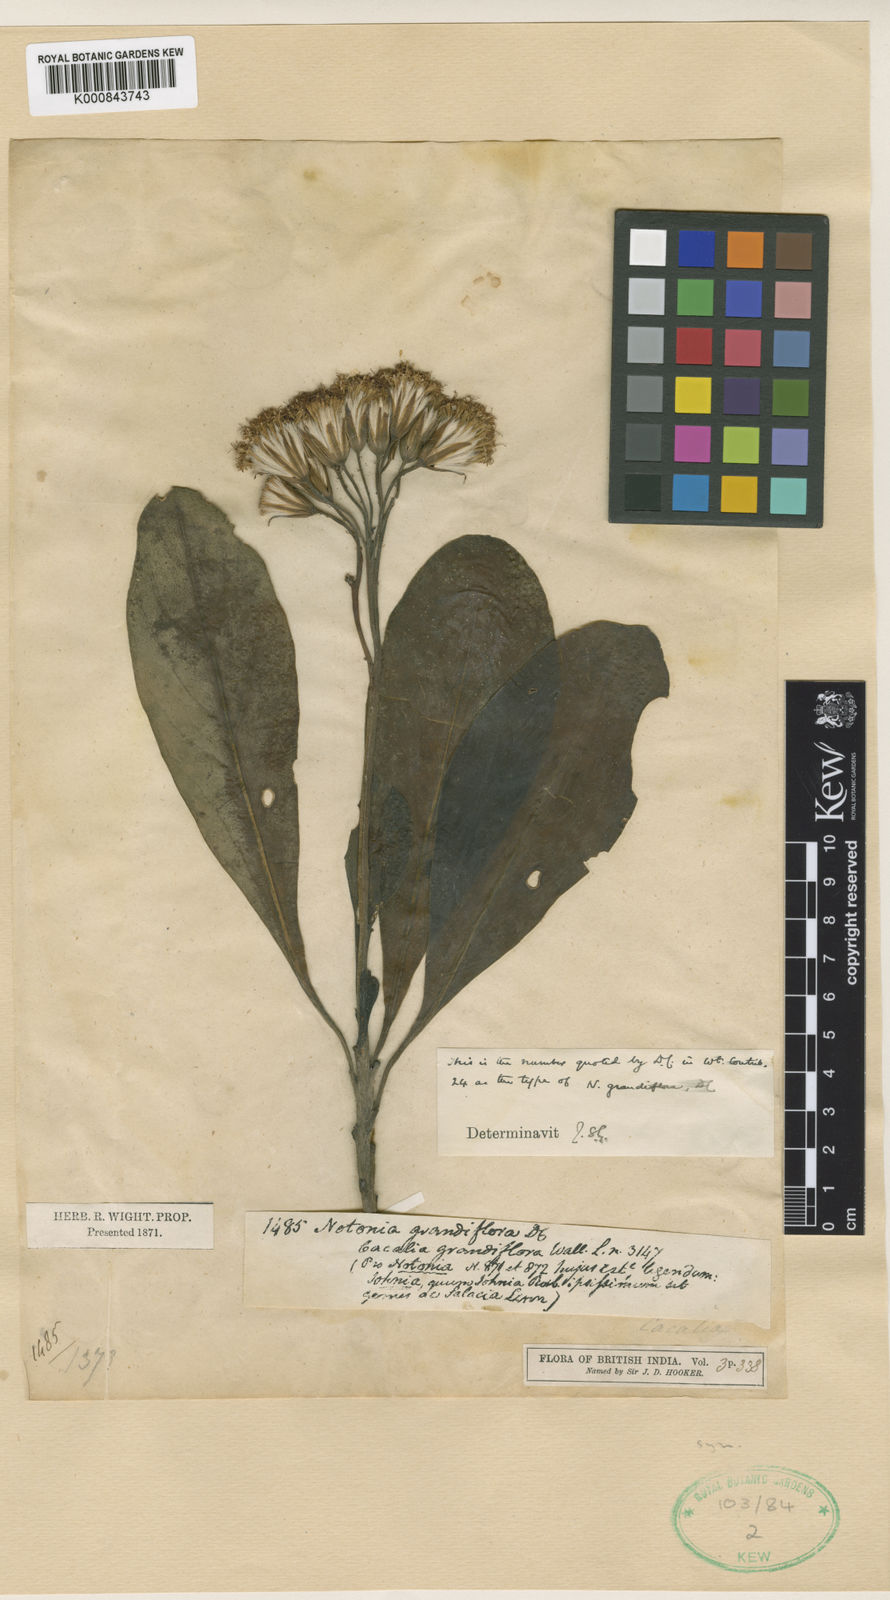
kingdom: Plantae
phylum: Tracheophyta
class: Magnoliopsida
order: Asterales
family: Asteraceae
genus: Kleinia
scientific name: Kleinia grandiflora
